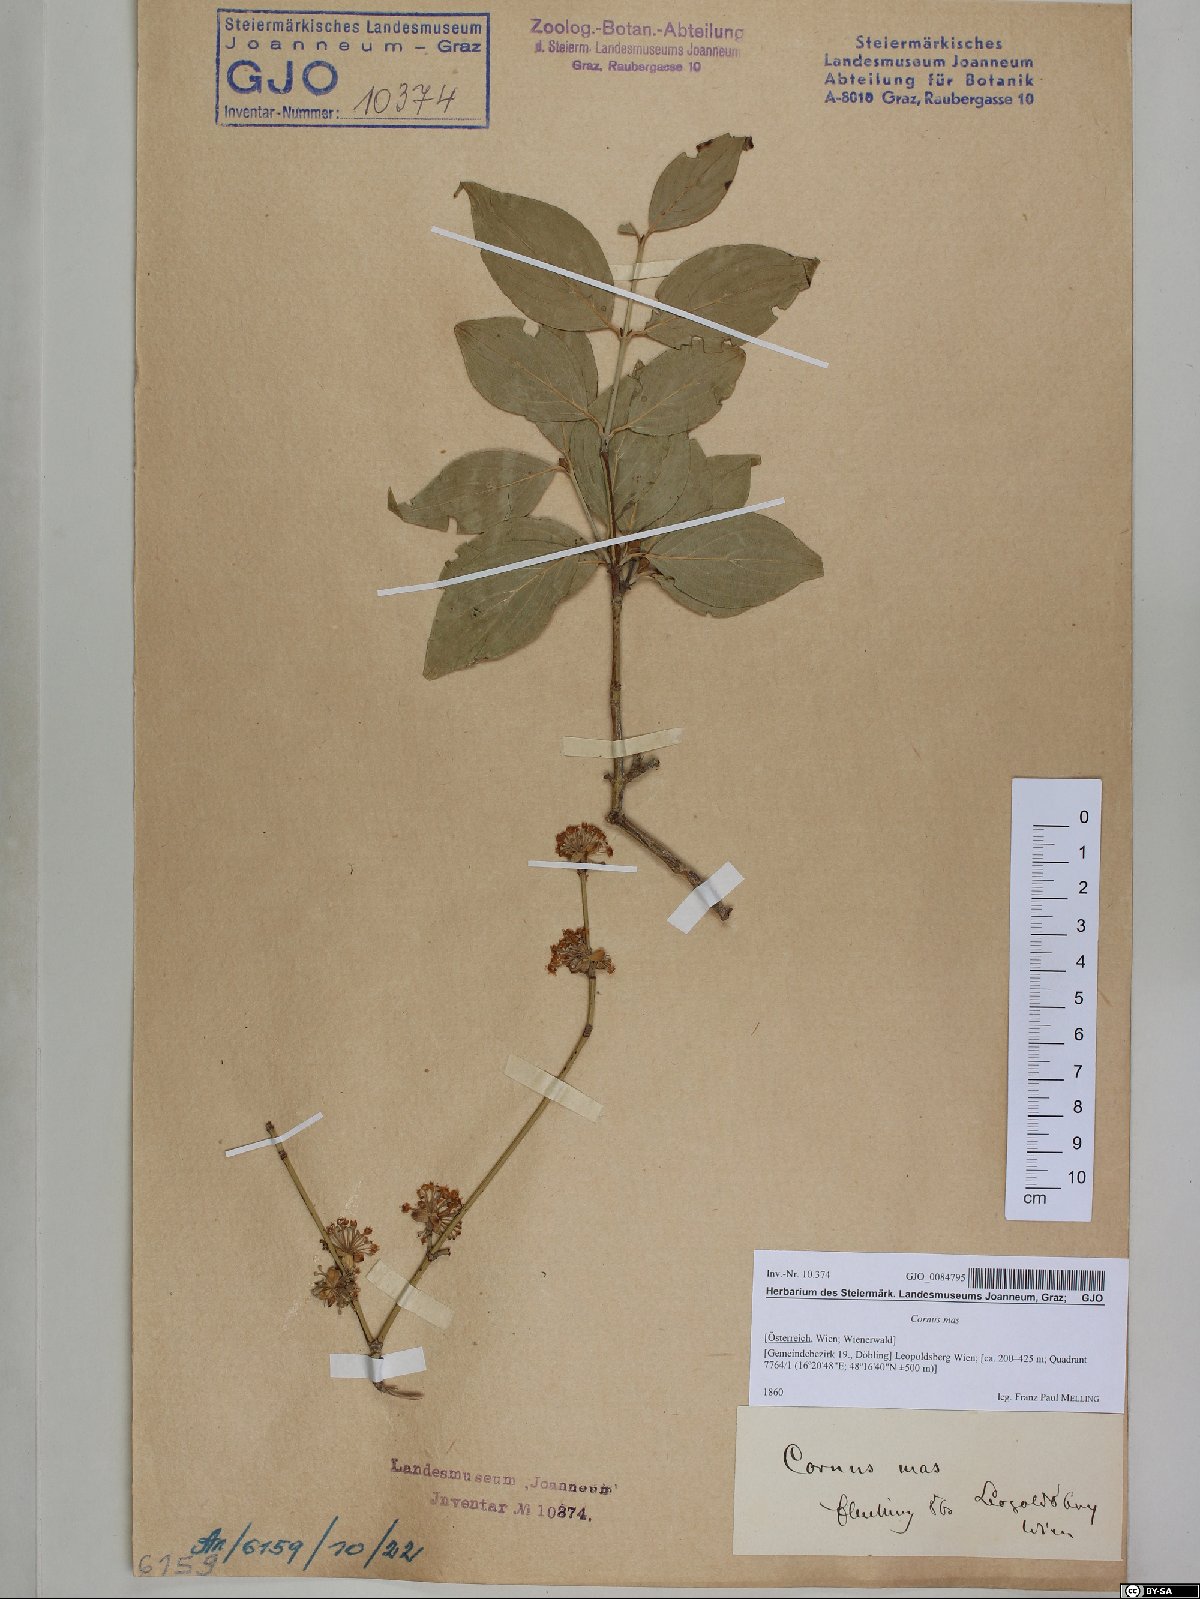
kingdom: Plantae
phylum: Tracheophyta
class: Magnoliopsida
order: Cornales
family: Cornaceae
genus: Cornus
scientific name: Cornus mas
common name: Cornelian-cherry
